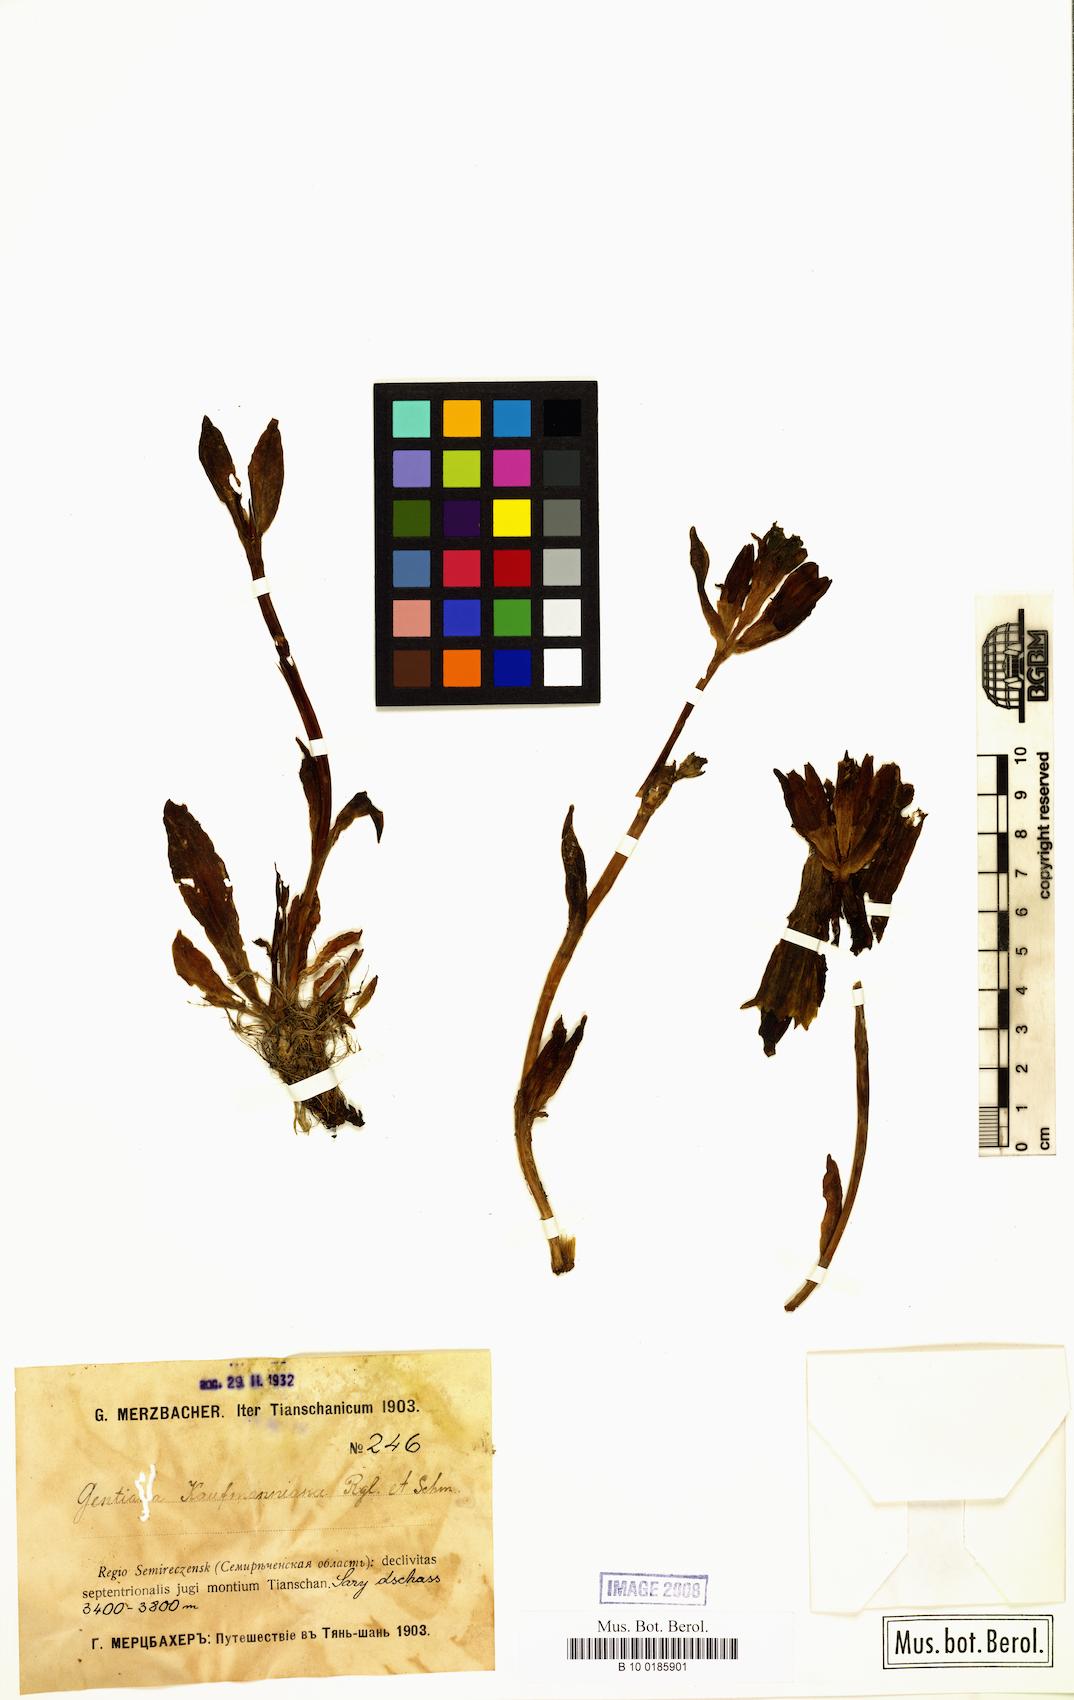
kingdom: Plantae
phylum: Tracheophyta
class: Magnoliopsida
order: Gentianales
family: Gentianaceae
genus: Gentiana
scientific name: Gentiana kauffmanniana
